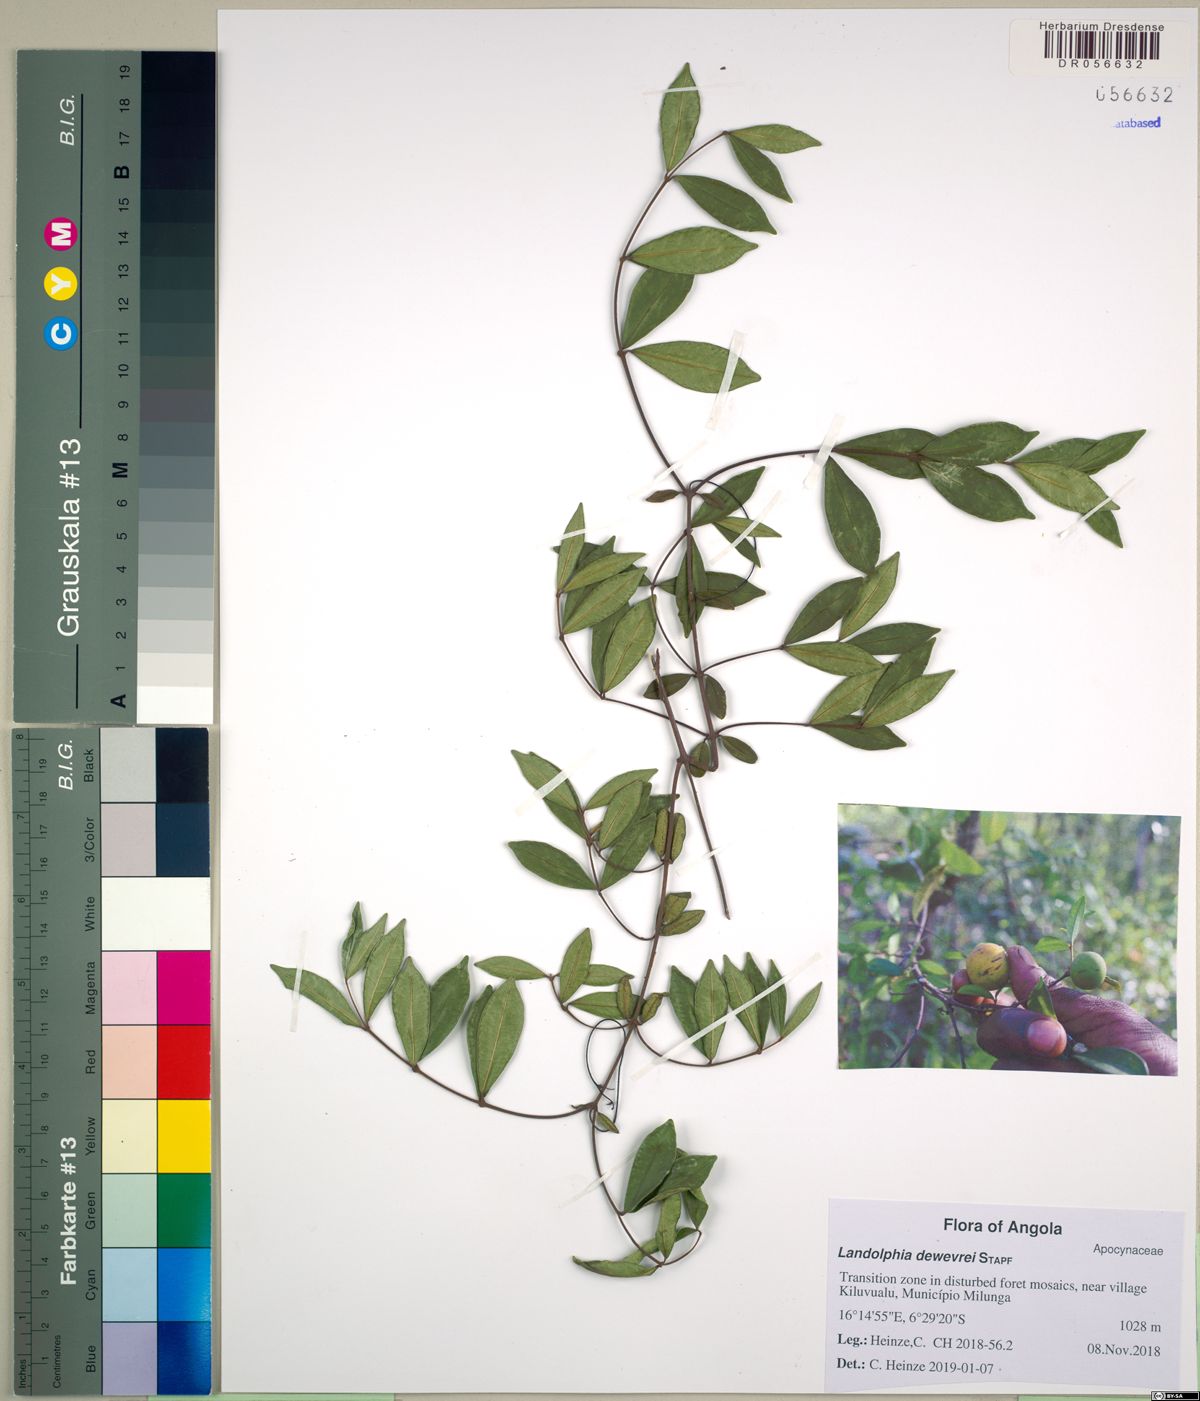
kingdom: Plantae
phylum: Tracheophyta
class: Magnoliopsida
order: Gentianales
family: Apocynaceae
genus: Landolphia
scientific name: Landolphia dewevrei
